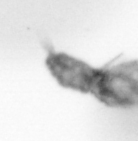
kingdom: Animalia
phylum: Arthropoda
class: Copepoda
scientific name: Copepoda
